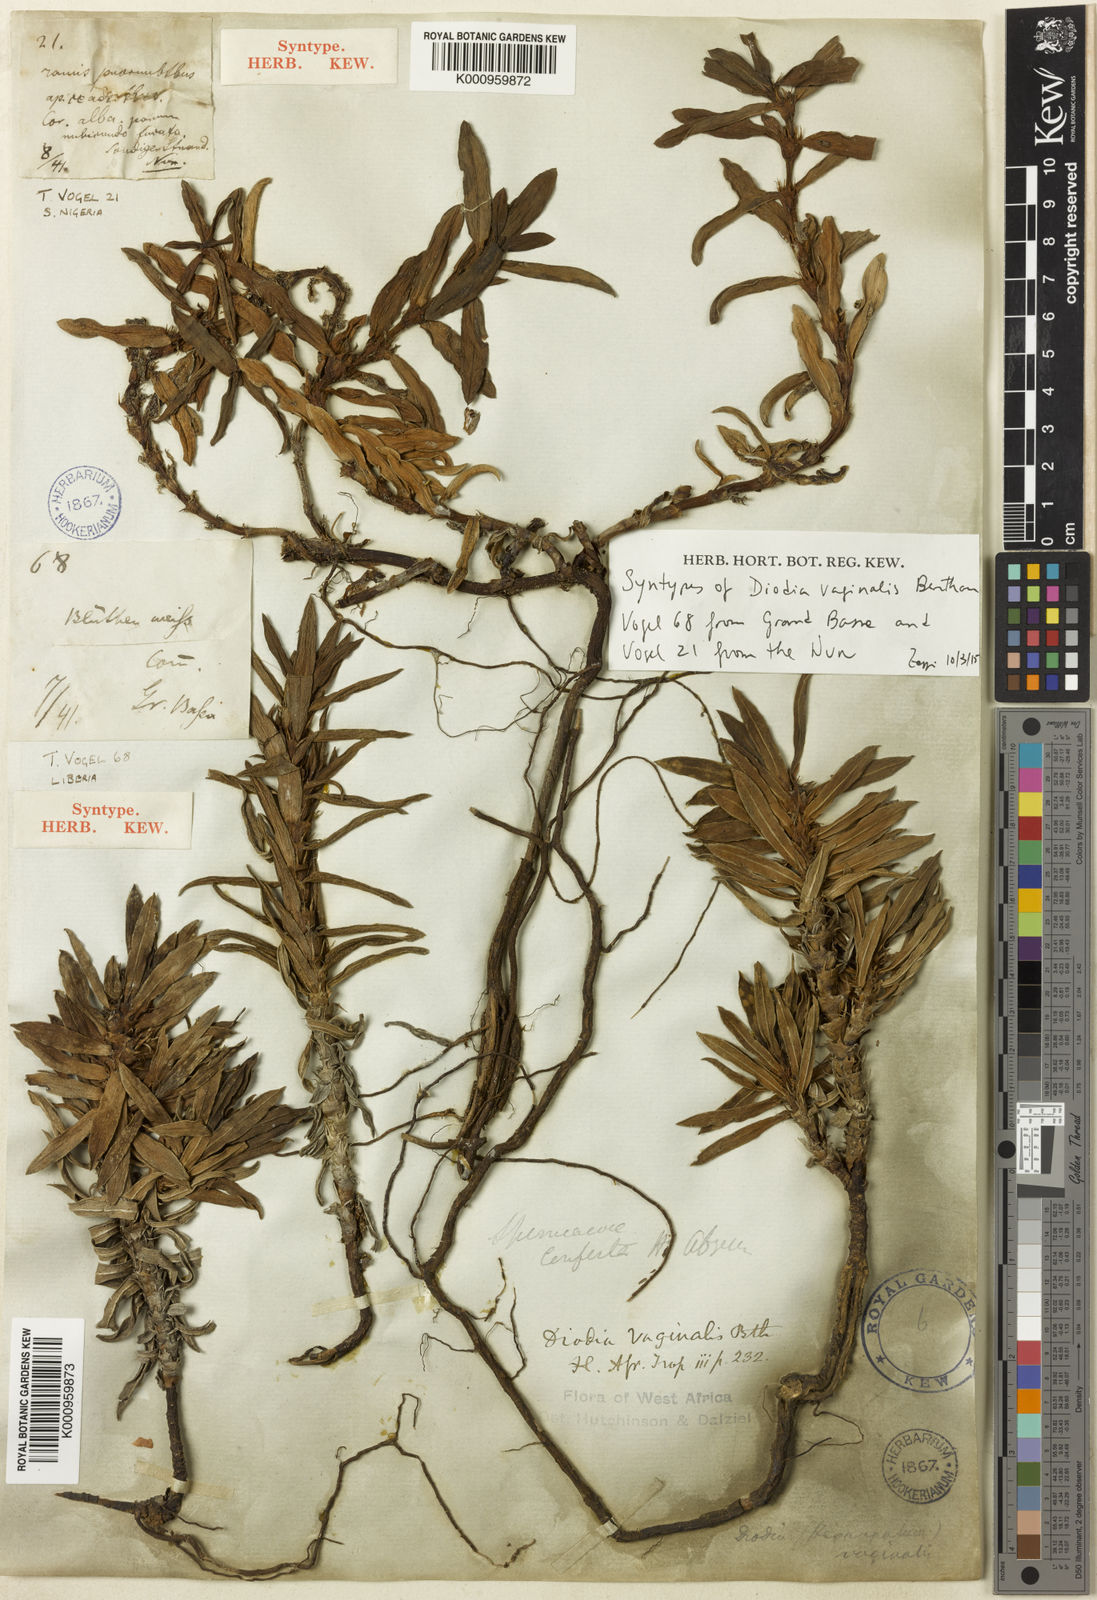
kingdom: Plantae
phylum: Tracheophyta
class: Magnoliopsida
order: Gentianales
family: Rubiaceae
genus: Hexasepalum
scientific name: Hexasepalum vaginale
